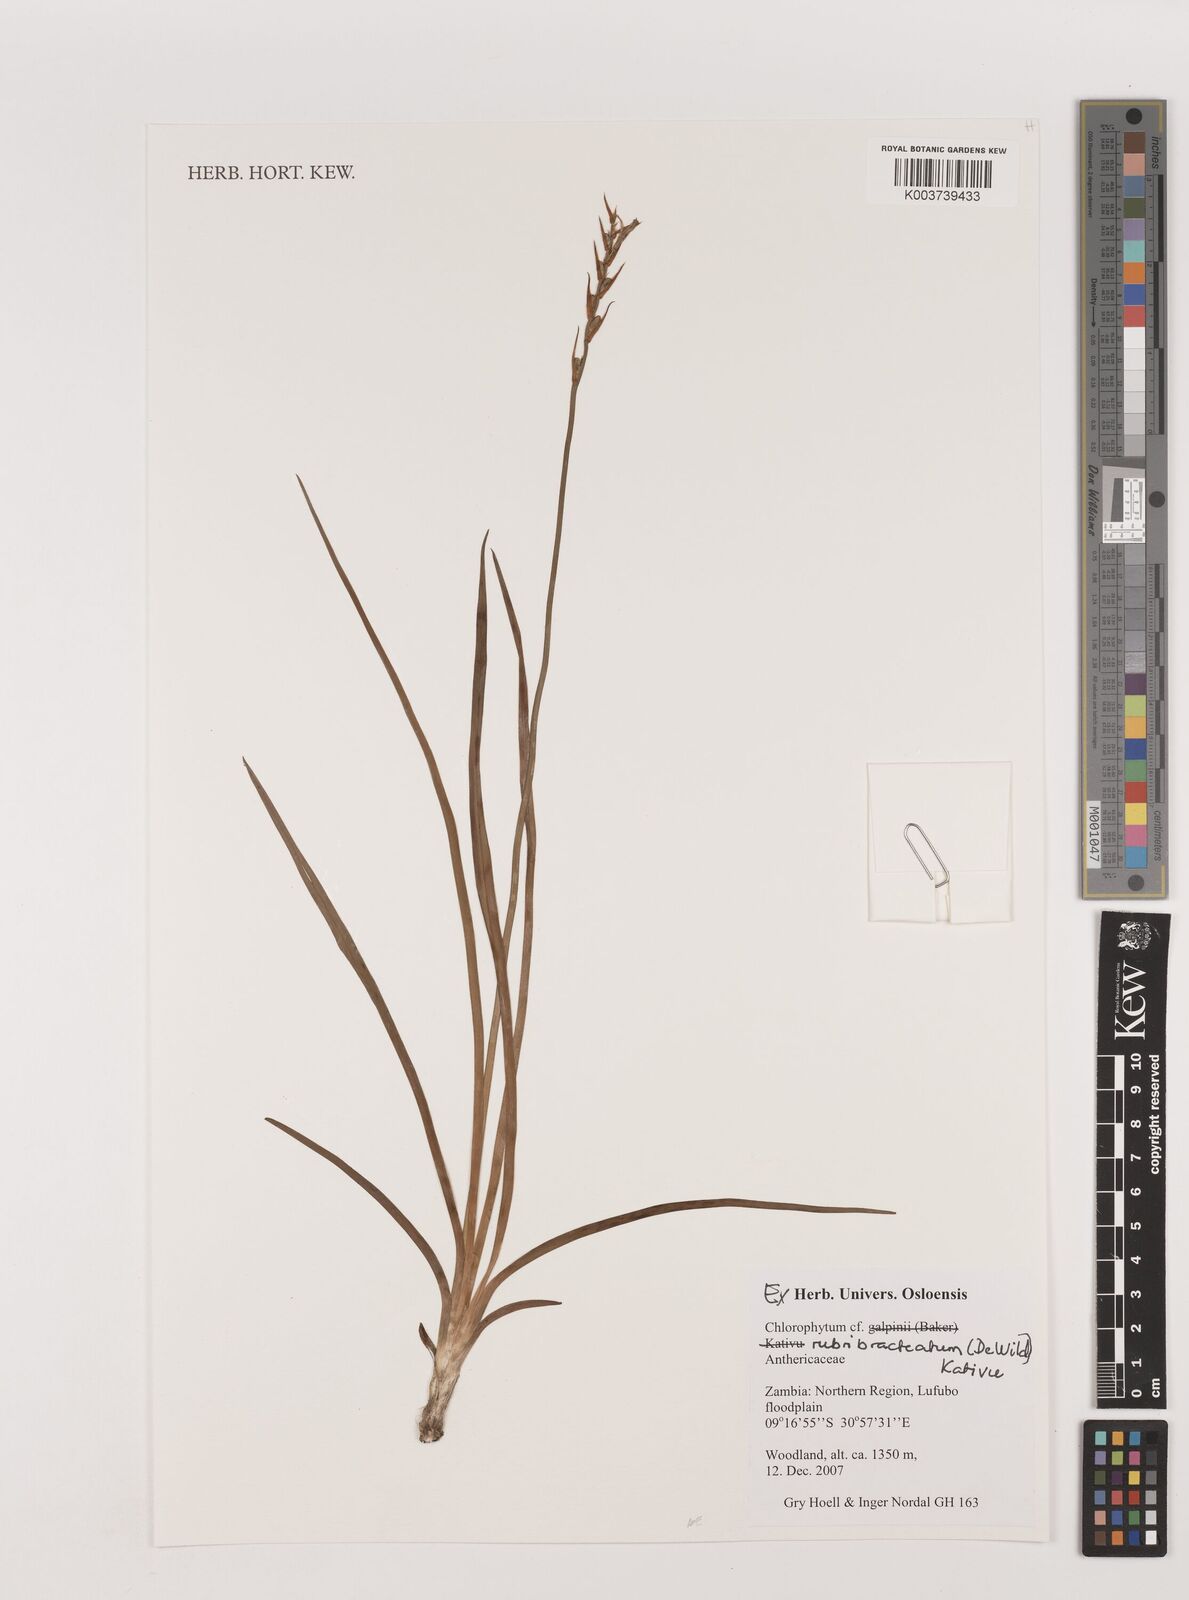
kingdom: Plantae
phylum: Tracheophyta
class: Liliopsida
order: Asparagales
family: Asparagaceae
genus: Chlorophytum
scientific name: Chlorophytum rubribracteatum
